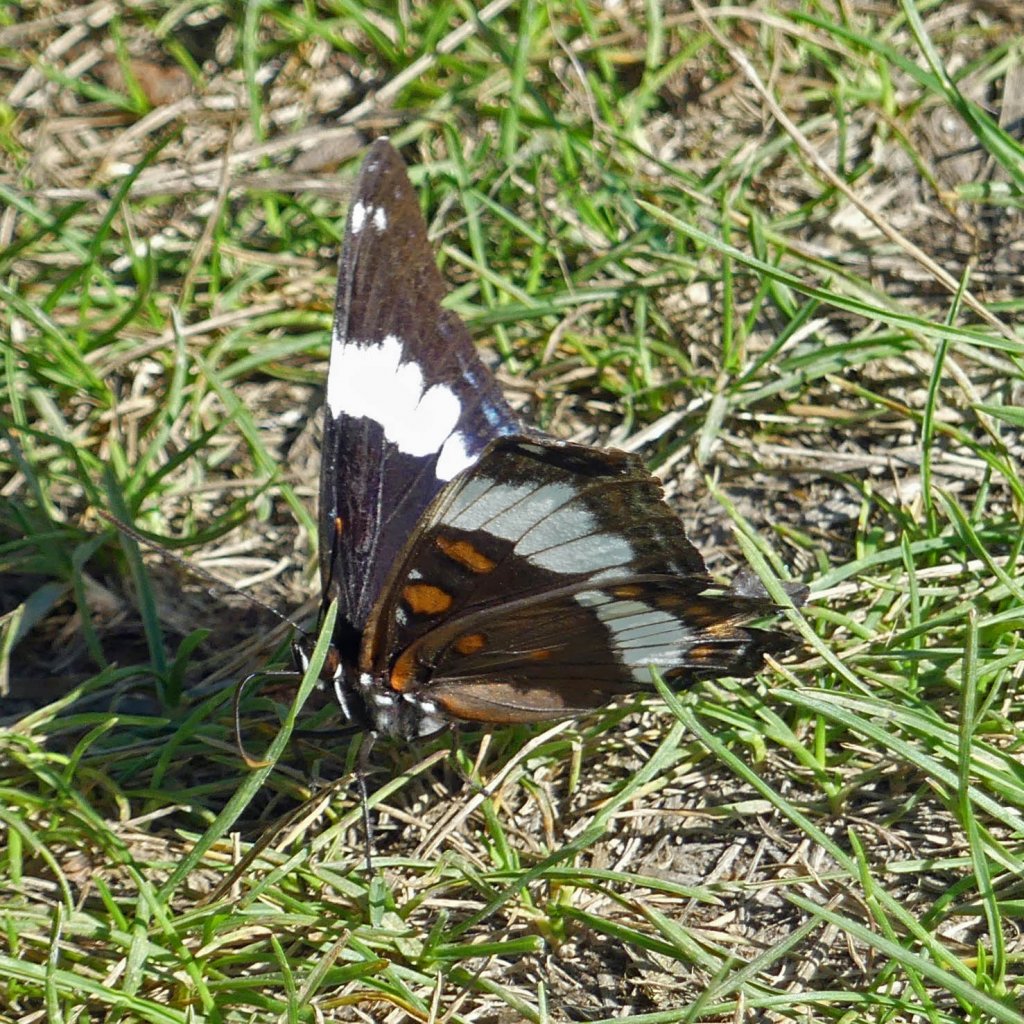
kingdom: Animalia
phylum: Arthropoda
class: Insecta
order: Lepidoptera
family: Nymphalidae
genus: Limenitis
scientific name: Limenitis arthemis
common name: Red-spotted Admiral
